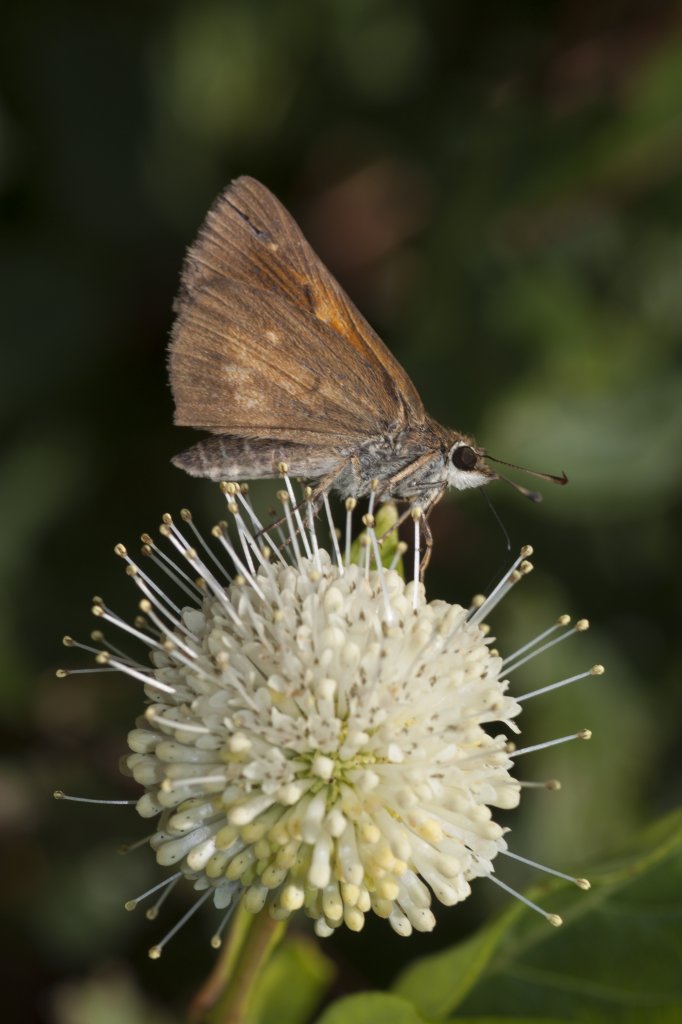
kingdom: Animalia
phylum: Arthropoda
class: Insecta
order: Lepidoptera
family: Hesperiidae
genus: Poanes
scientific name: Poanes viator
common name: Broad-winged Skipper
